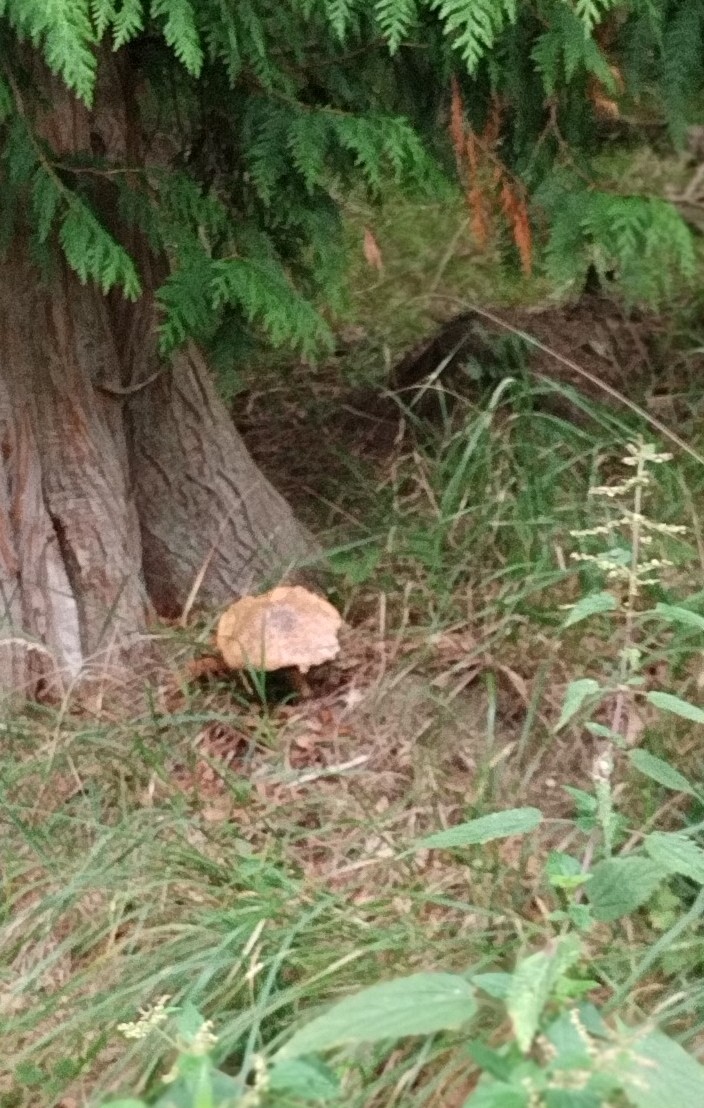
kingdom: Fungi
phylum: Basidiomycota
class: Agaricomycetes
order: Agaricales
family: Agaricaceae
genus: Agaricus
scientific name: Agaricus augustus
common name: prægtig champignon
